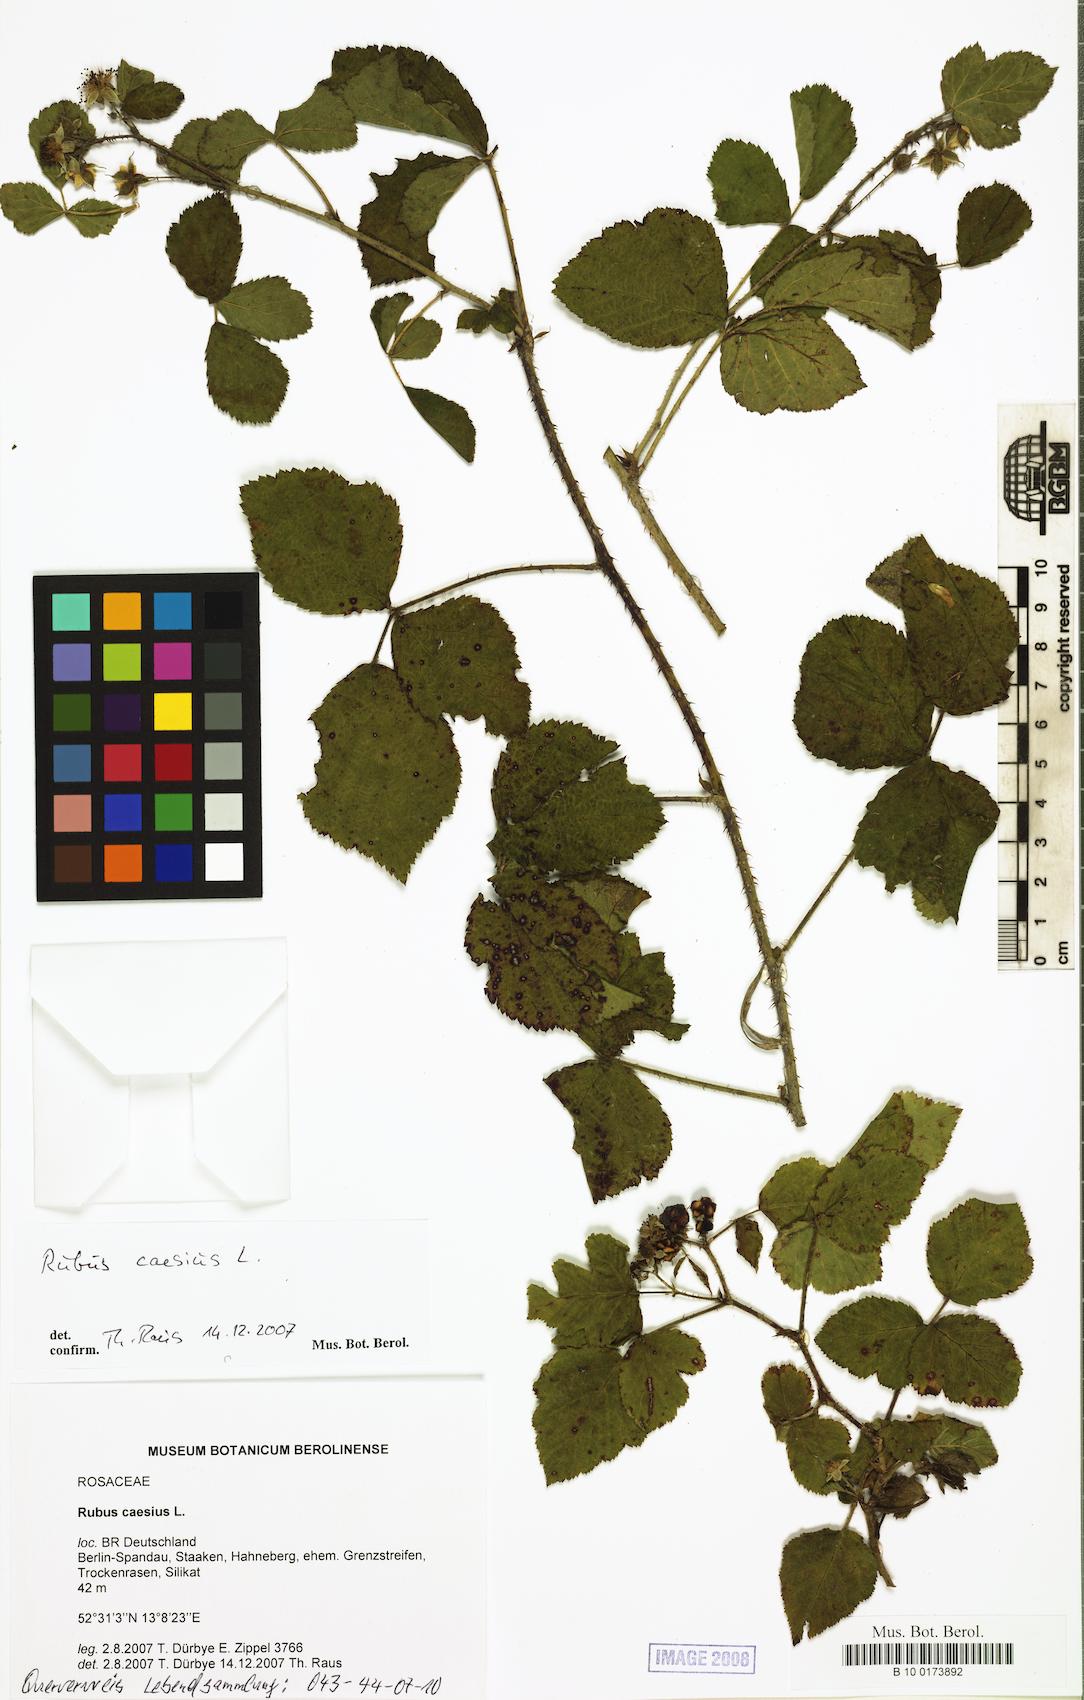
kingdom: Plantae
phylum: Tracheophyta
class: Magnoliopsida
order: Rosales
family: Rosaceae
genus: Rubus
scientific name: Rubus caesius
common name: Dewberry
